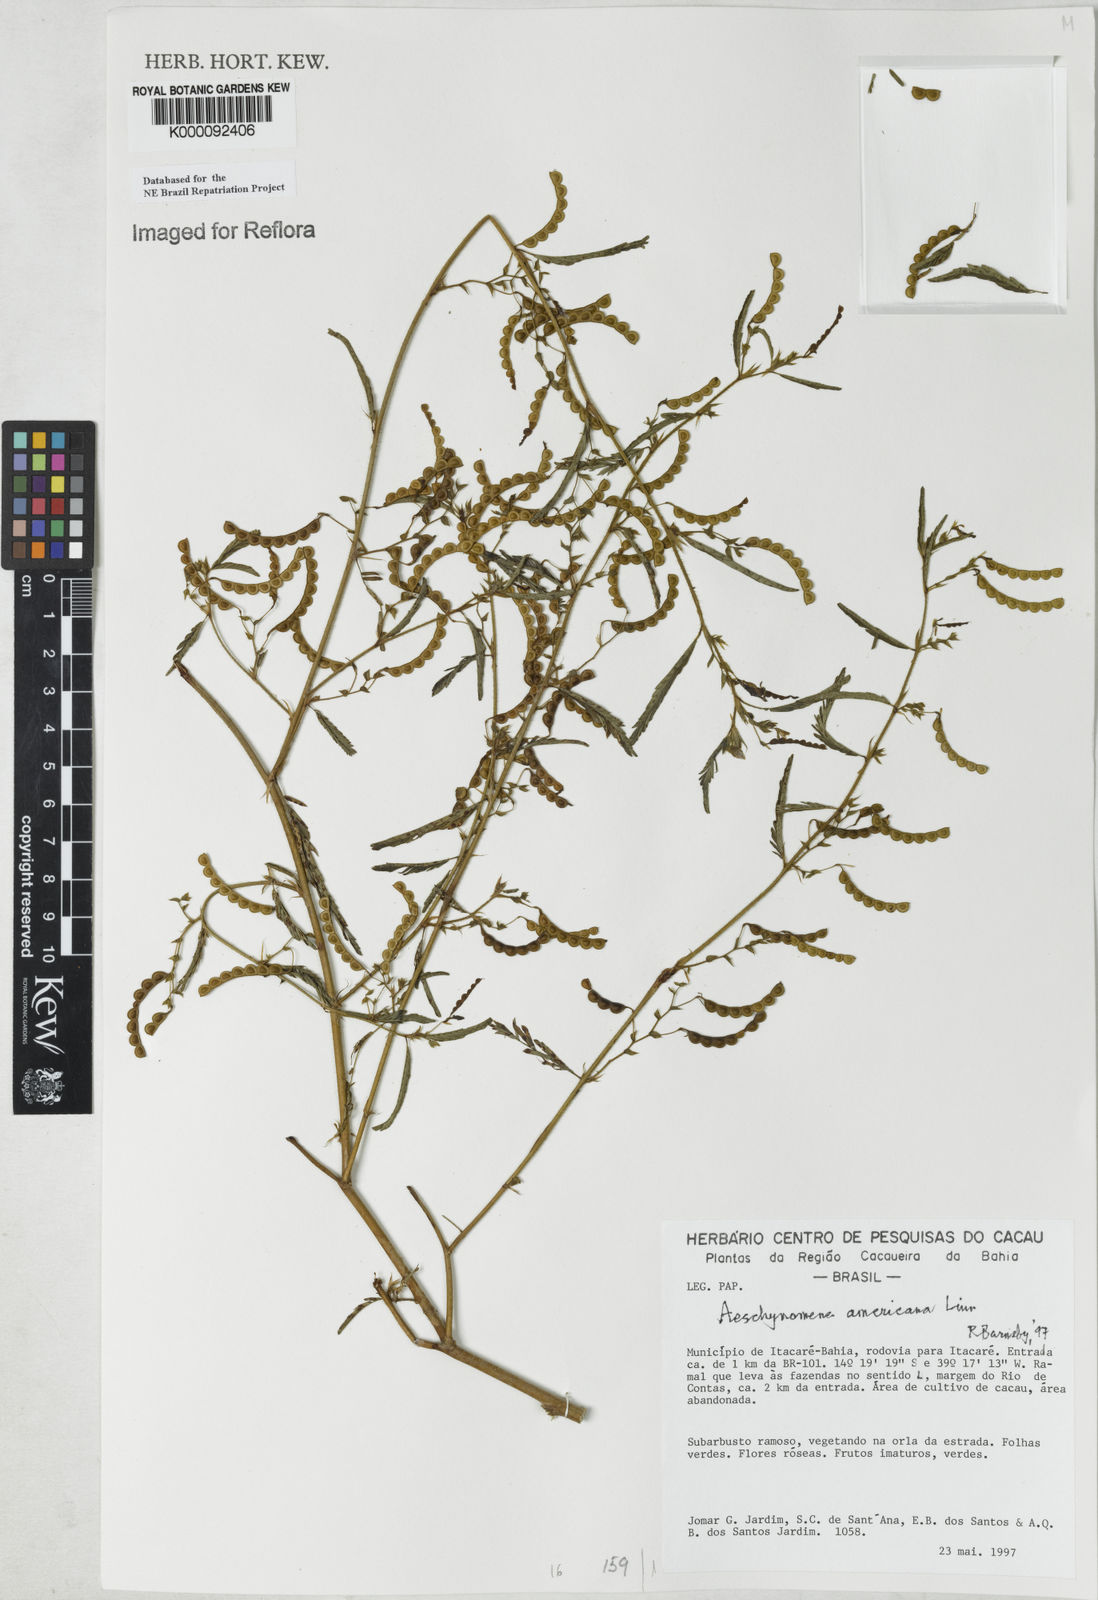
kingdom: Plantae
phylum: Tracheophyta
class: Magnoliopsida
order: Fabales
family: Fabaceae
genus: Aeschynomene
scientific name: Aeschynomene americana
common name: Joint-vetch
